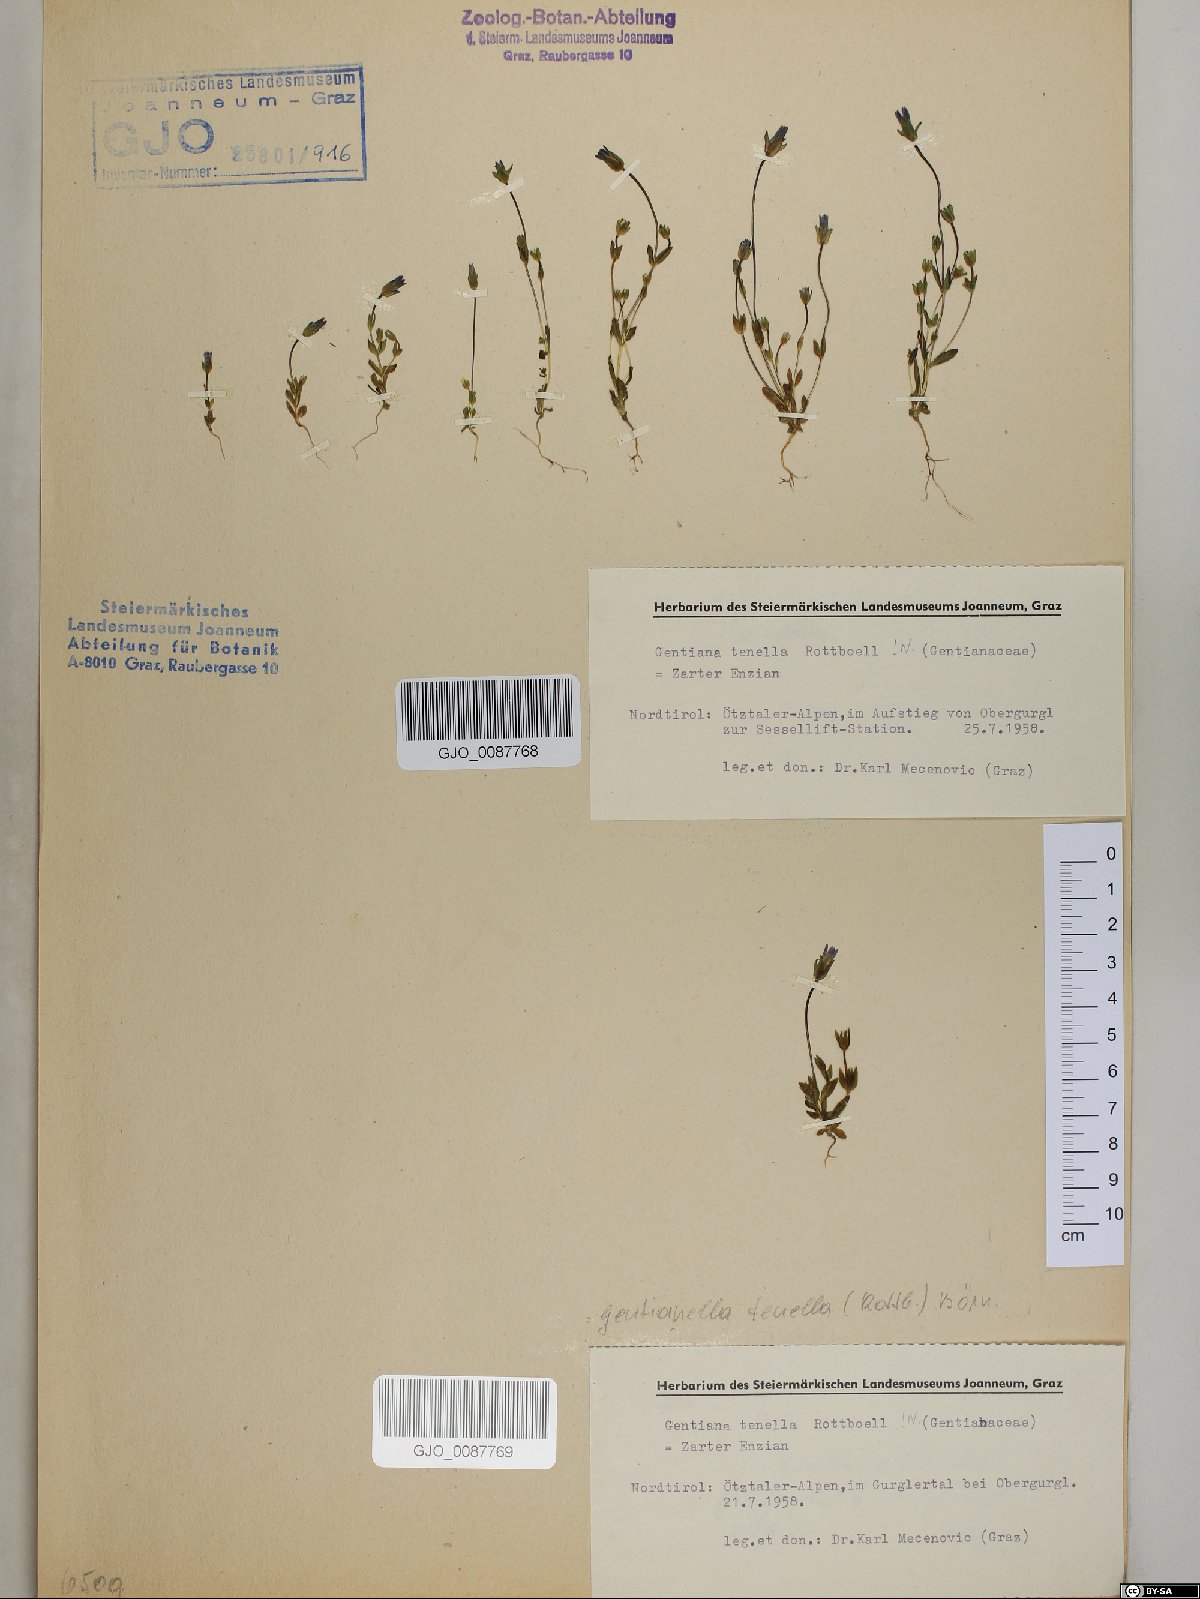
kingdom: Plantae
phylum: Tracheophyta
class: Magnoliopsida
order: Gentianales
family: Gentianaceae
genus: Comastoma
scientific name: Comastoma tenellum
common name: Dane's dwarf gentian
